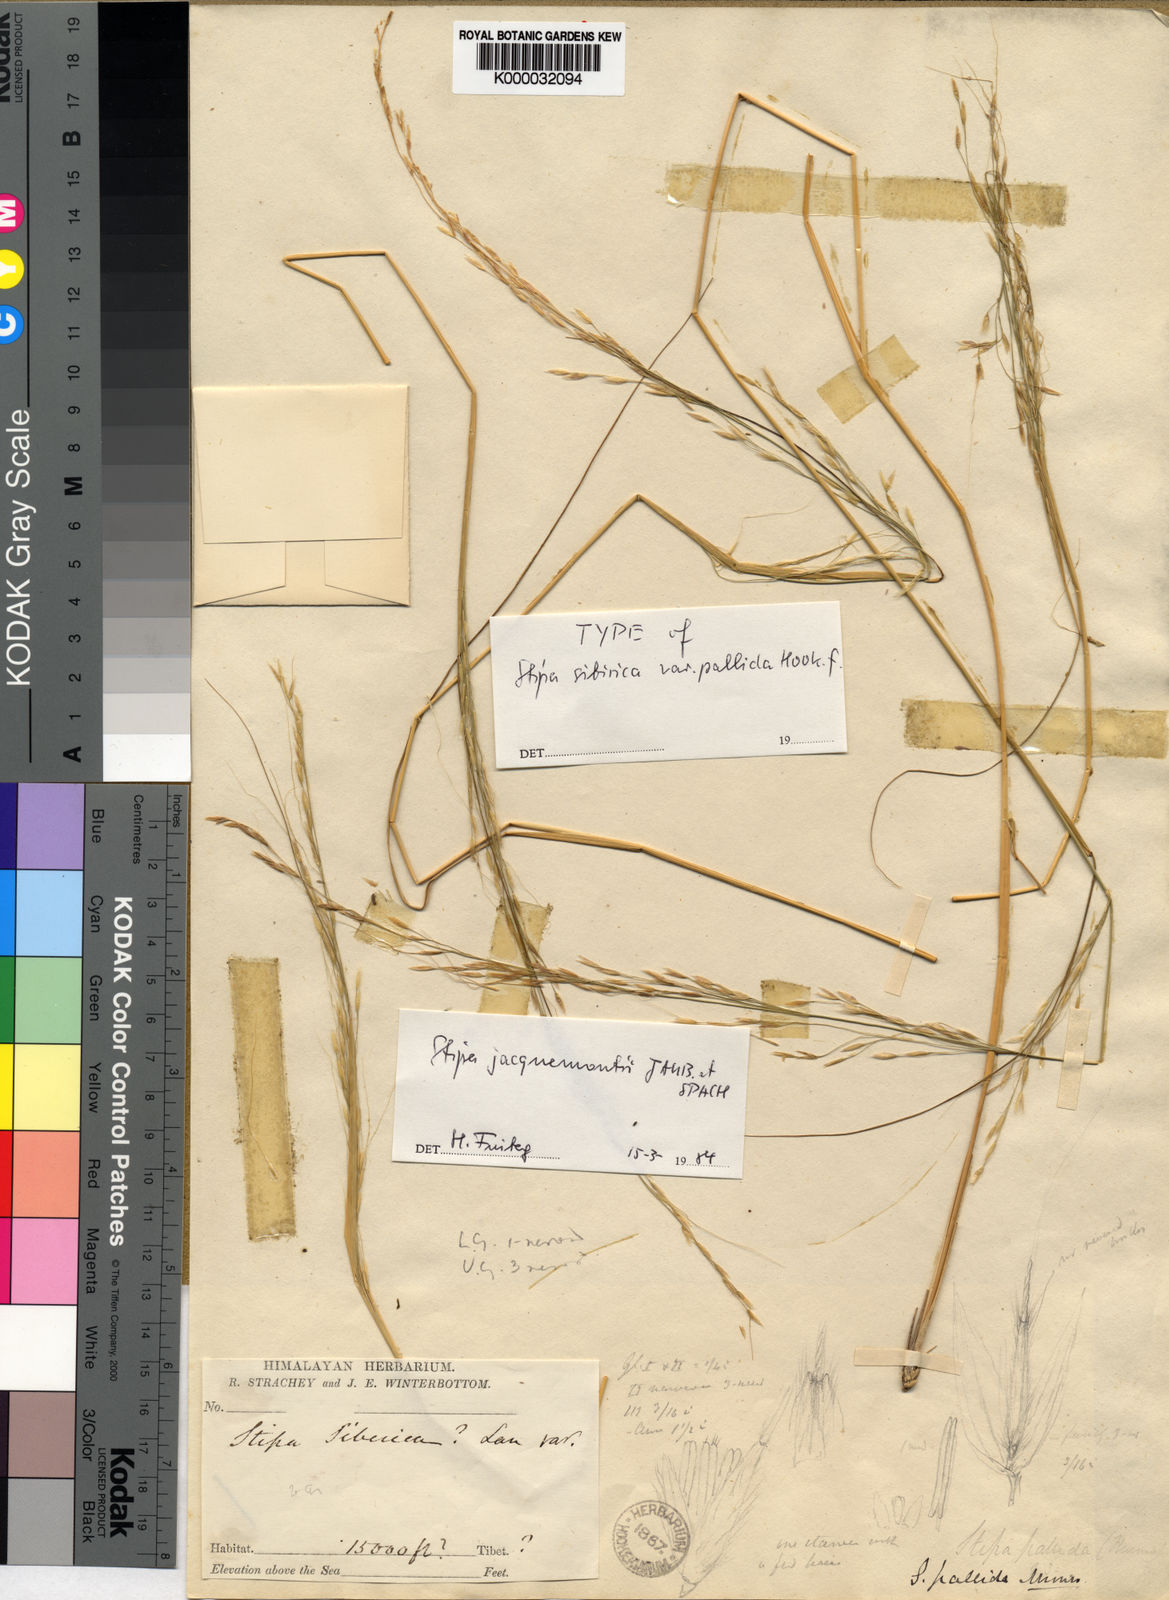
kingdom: Plantae
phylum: Tracheophyta
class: Liliopsida
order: Poales
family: Poaceae
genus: Stipa
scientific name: Stipa
